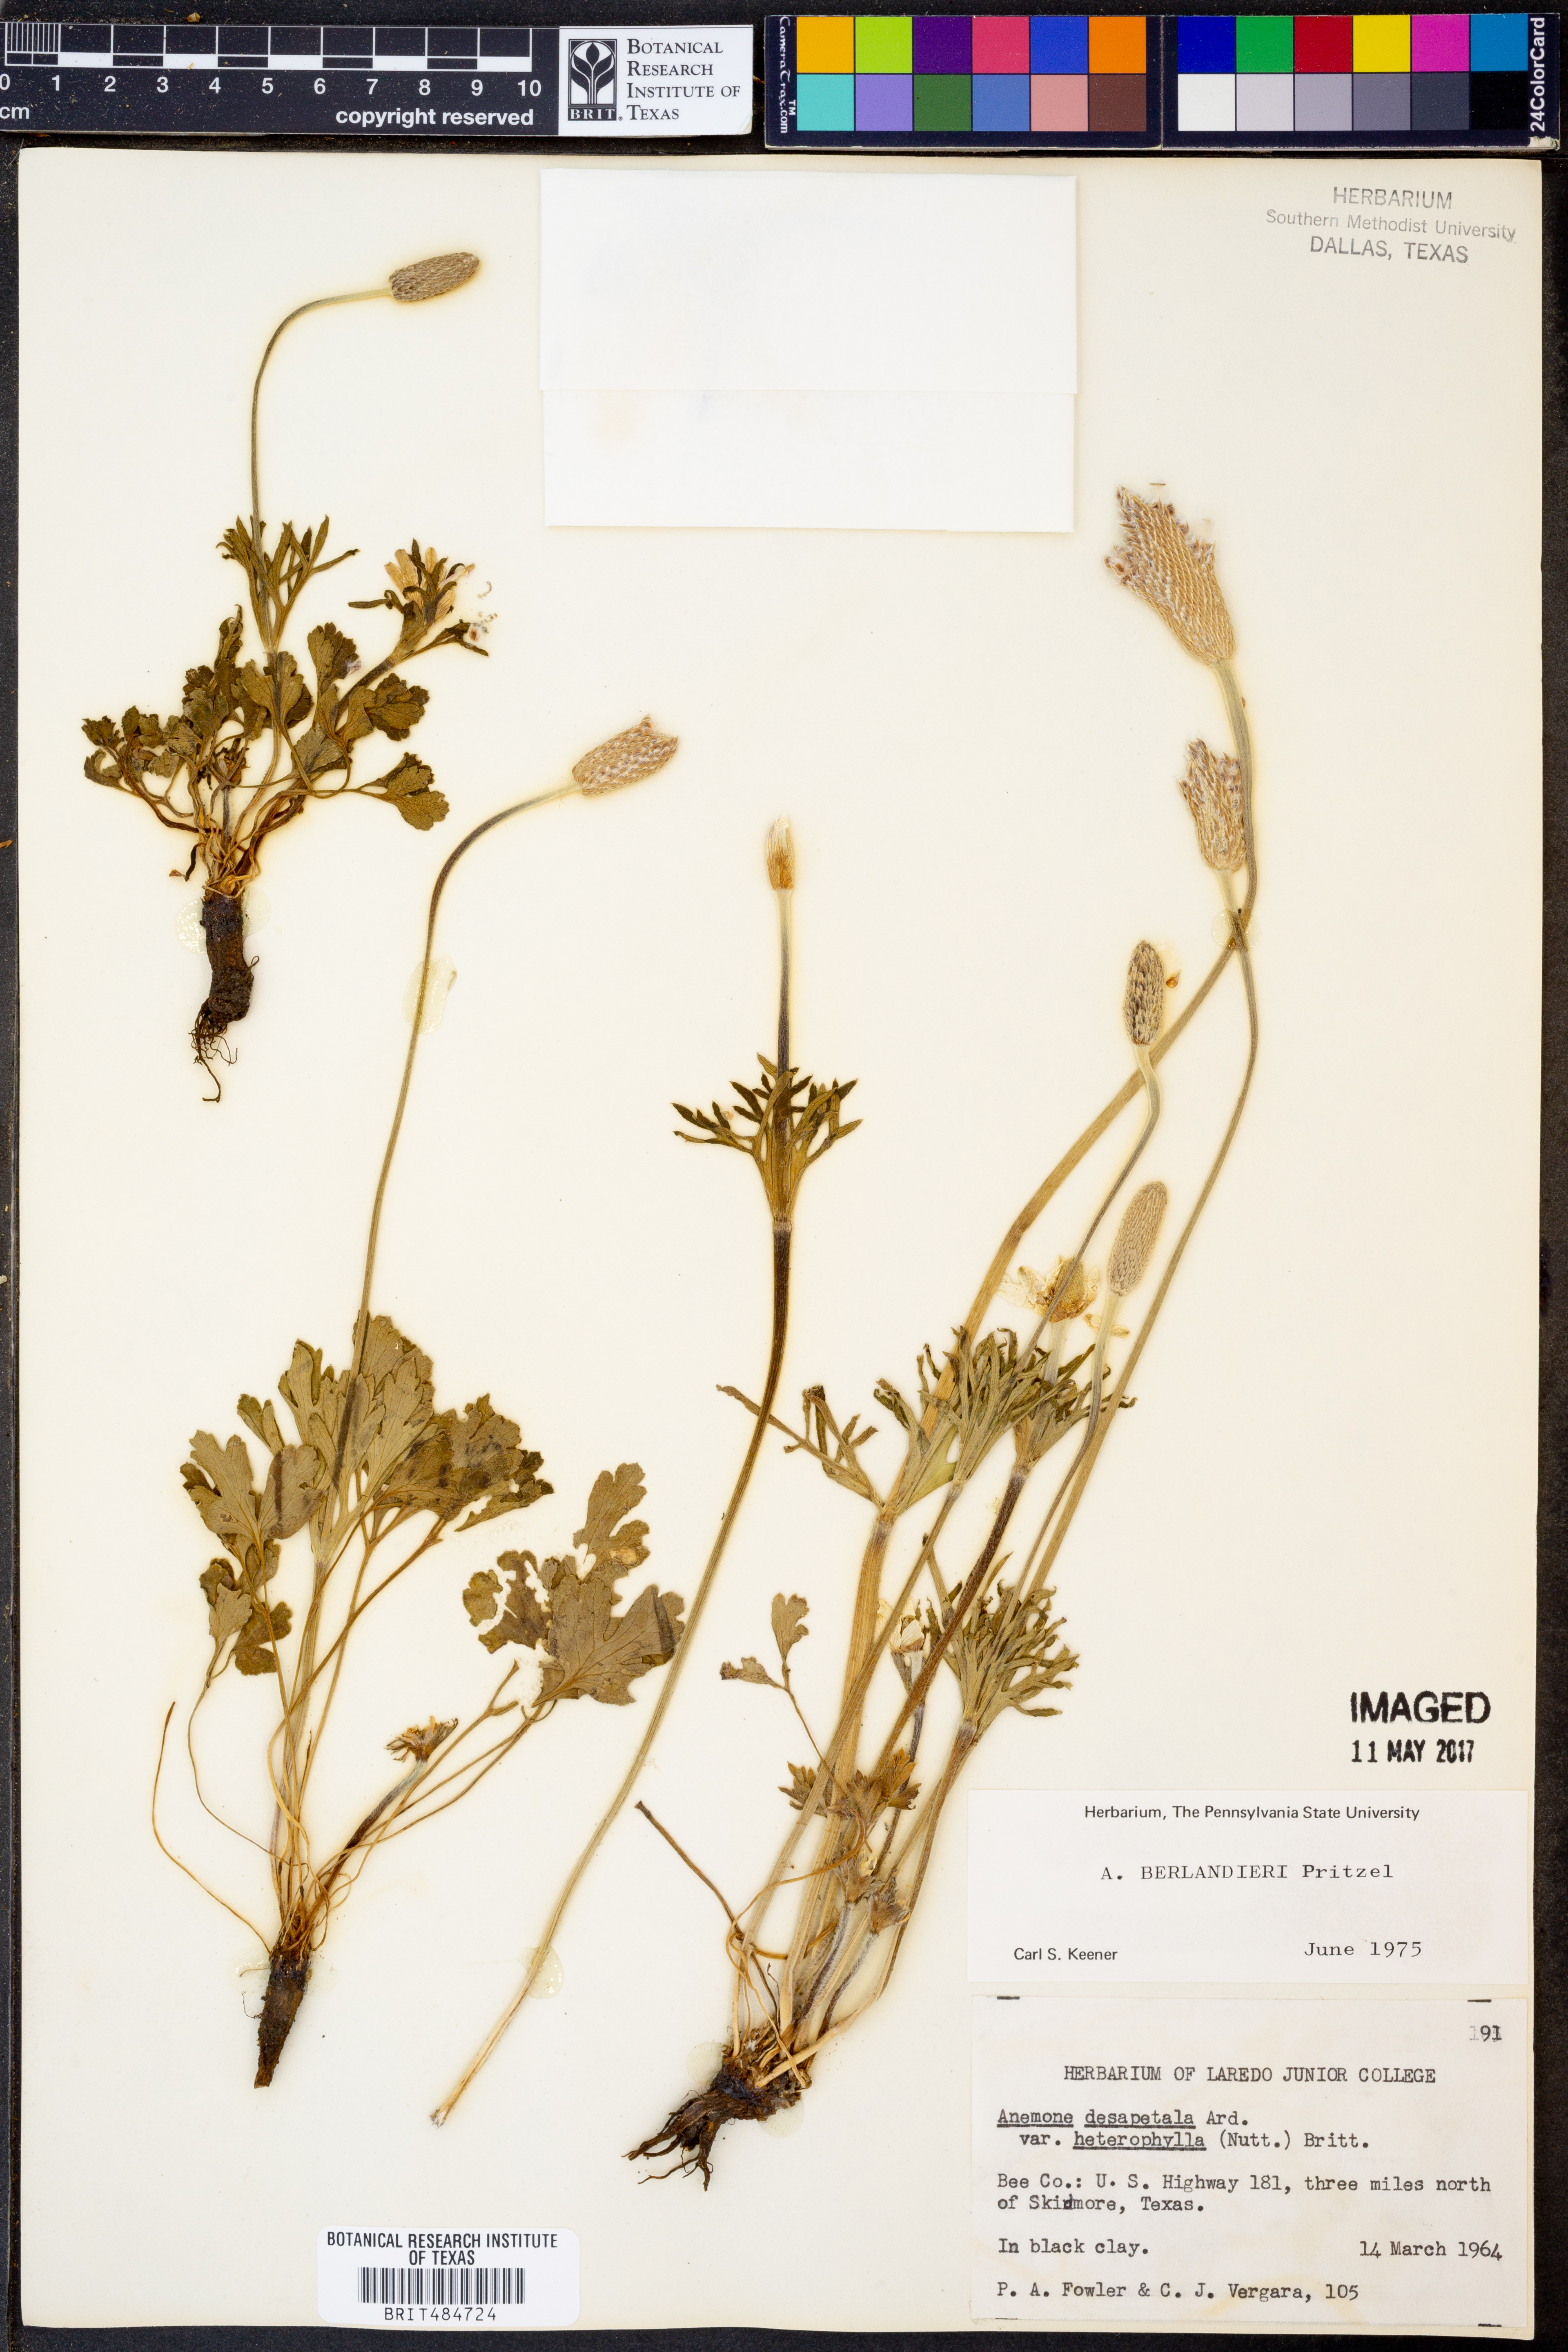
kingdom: Plantae
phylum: Tracheophyta
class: Magnoliopsida
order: Ranunculales
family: Ranunculaceae
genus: Anemone
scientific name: Anemone berlandieri
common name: Ten-petal anemone
